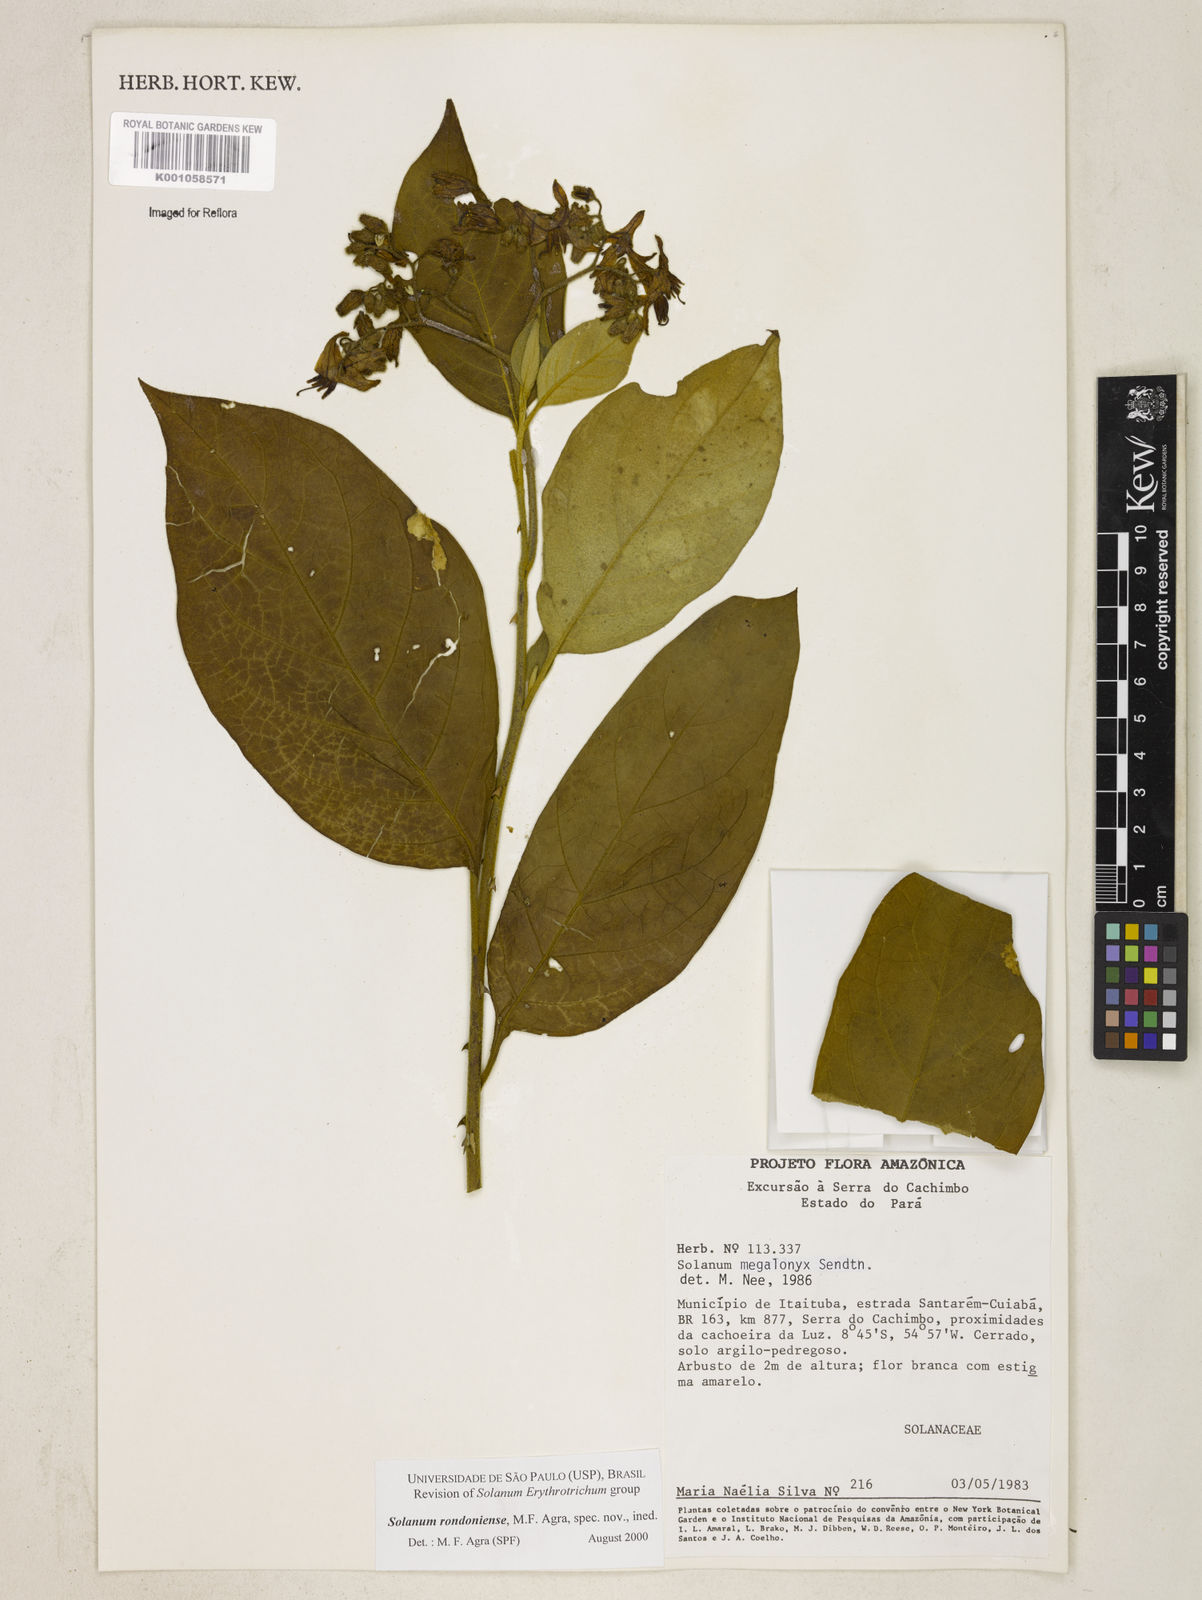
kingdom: Plantae
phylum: Tracheophyta
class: Magnoliopsida
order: Solanales
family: Solanaceae
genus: Solanum
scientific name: Solanum
